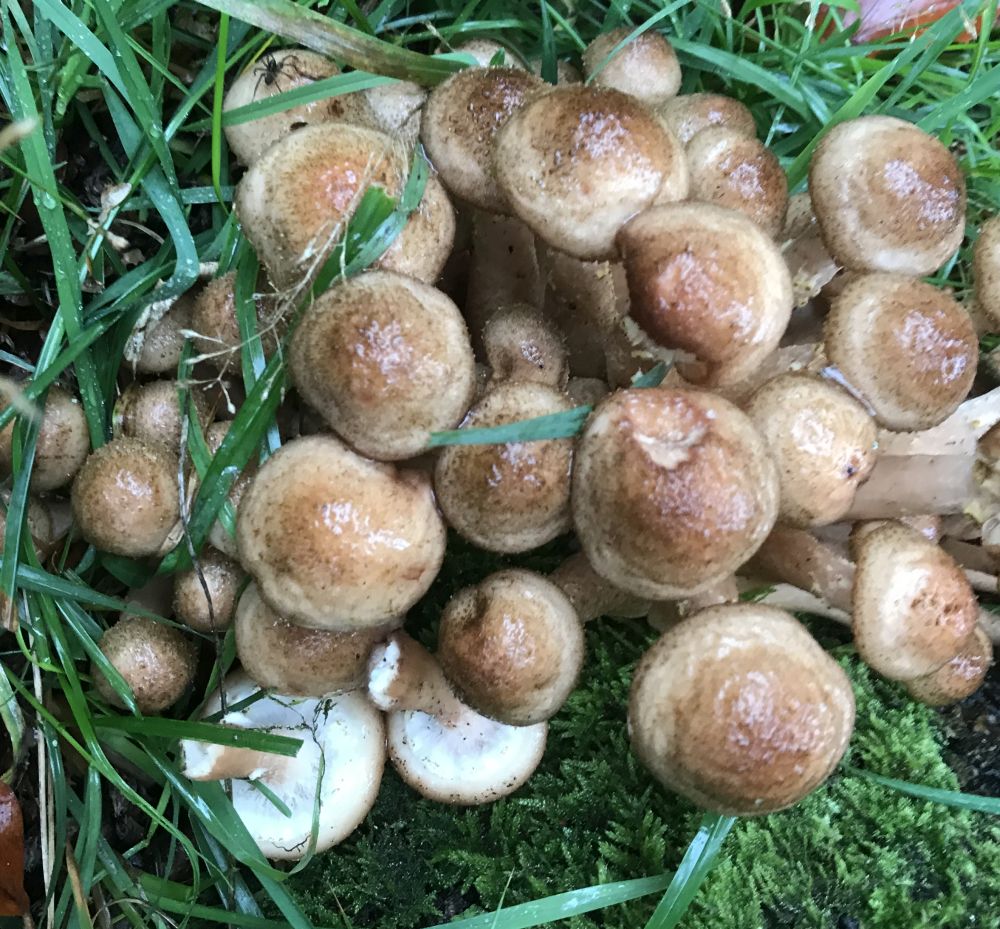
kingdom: Fungi
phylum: Basidiomycota
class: Agaricomycetes
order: Agaricales
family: Physalacriaceae
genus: Armillaria
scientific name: Armillaria mellea
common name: ægte honningsvamp
